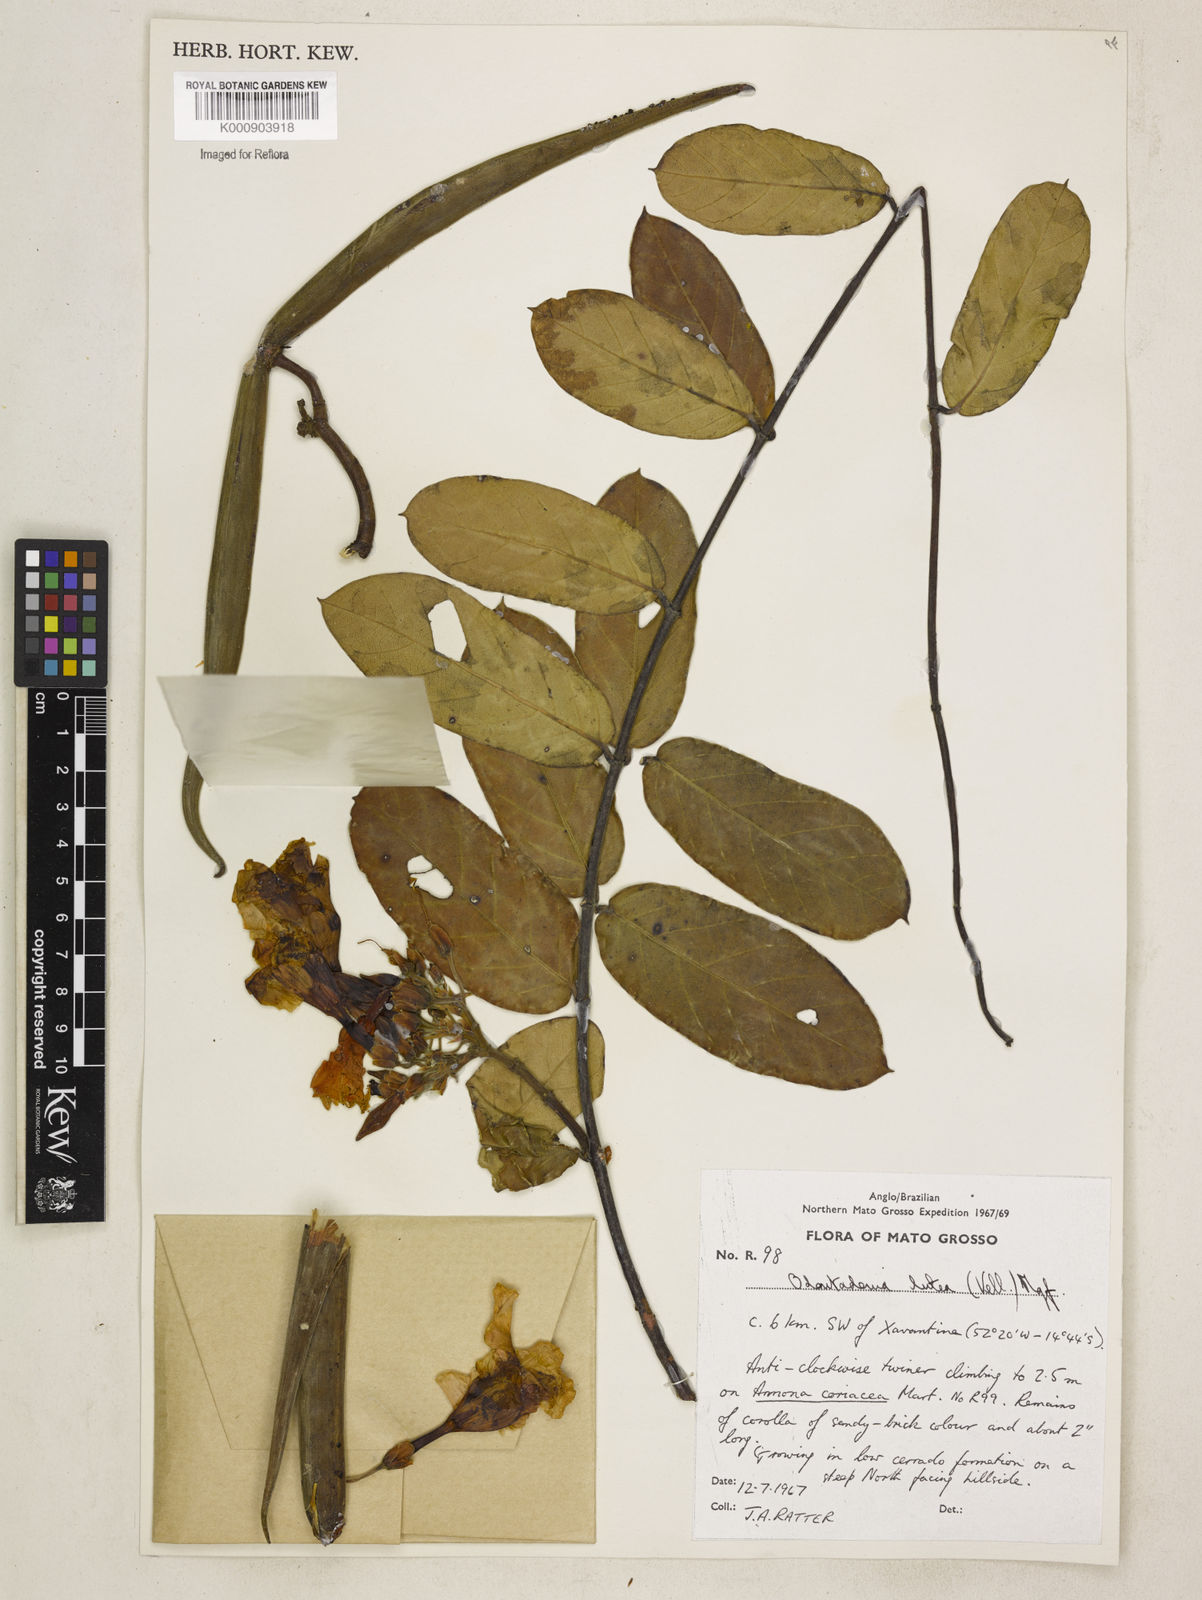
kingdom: Plantae
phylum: Tracheophyta
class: Magnoliopsida
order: Gentianales
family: Apocynaceae
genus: Odontadenia
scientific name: Odontadenia lutea
